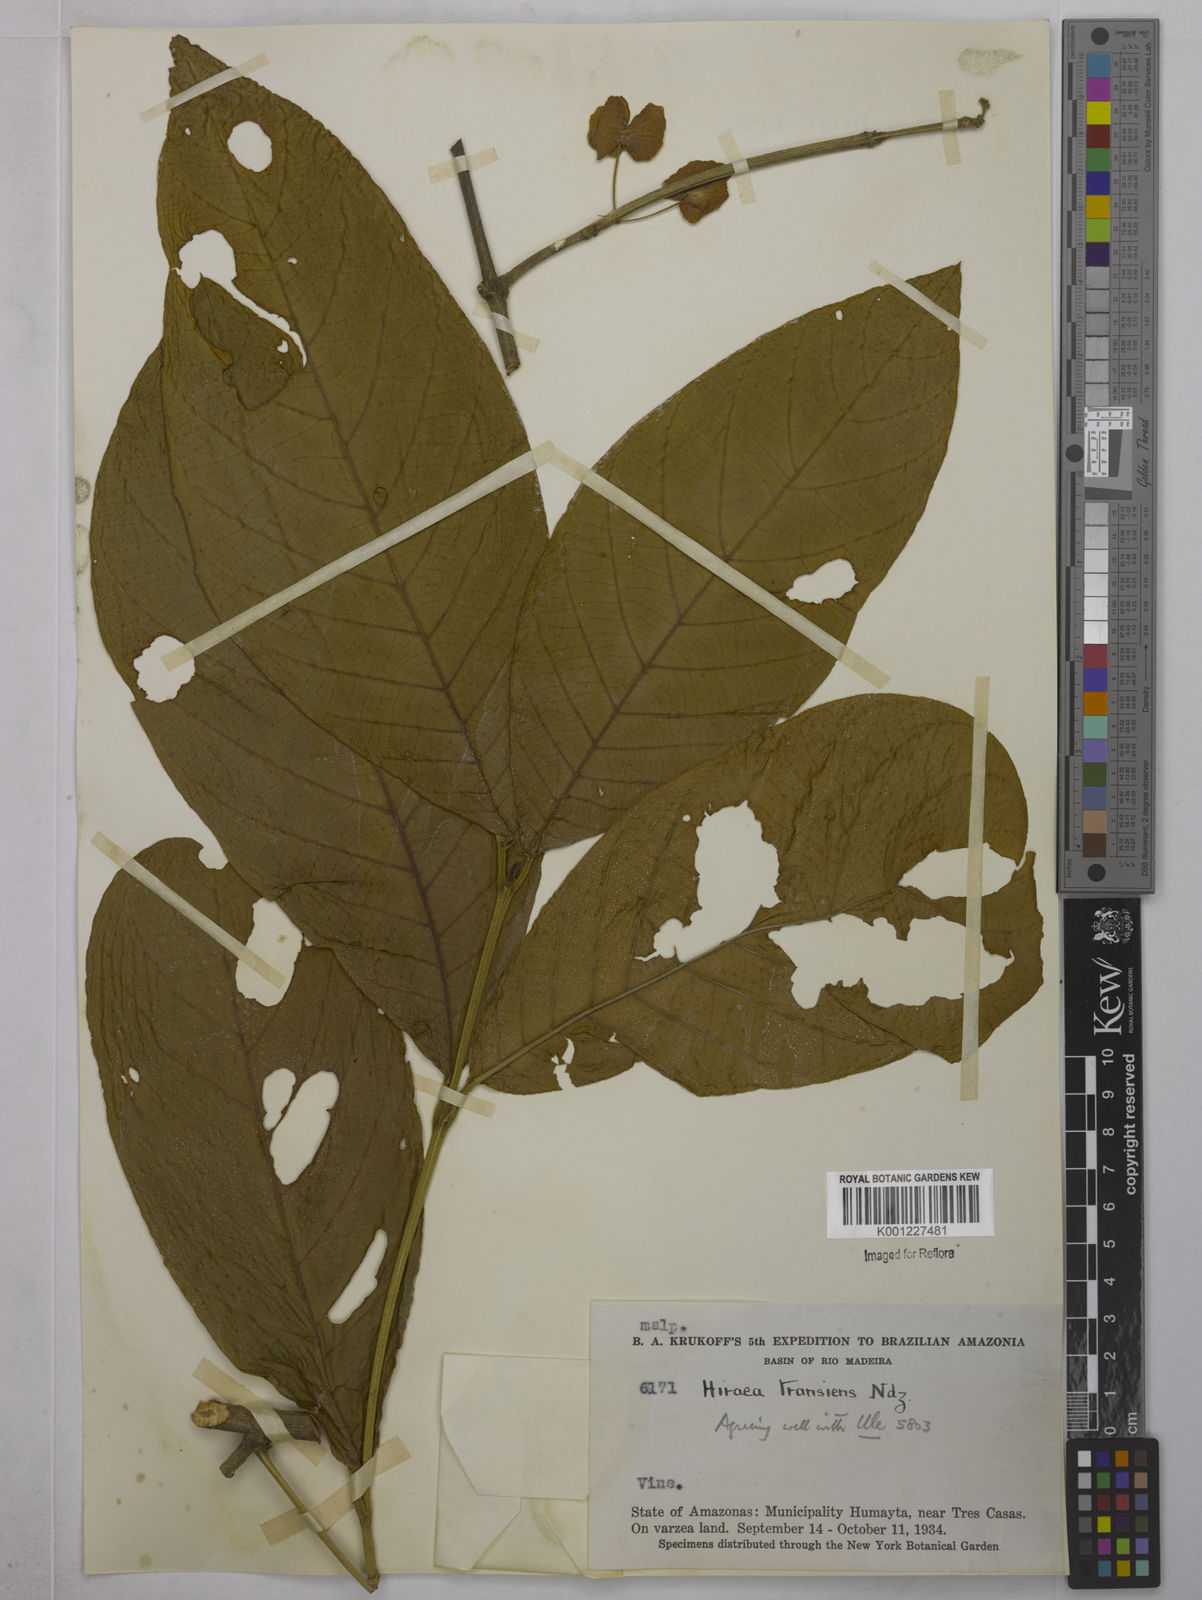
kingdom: Plantae
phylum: Tracheophyta
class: Magnoliopsida
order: Malpighiales
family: Malpighiaceae
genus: Hiraea
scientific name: Hiraea transiens
